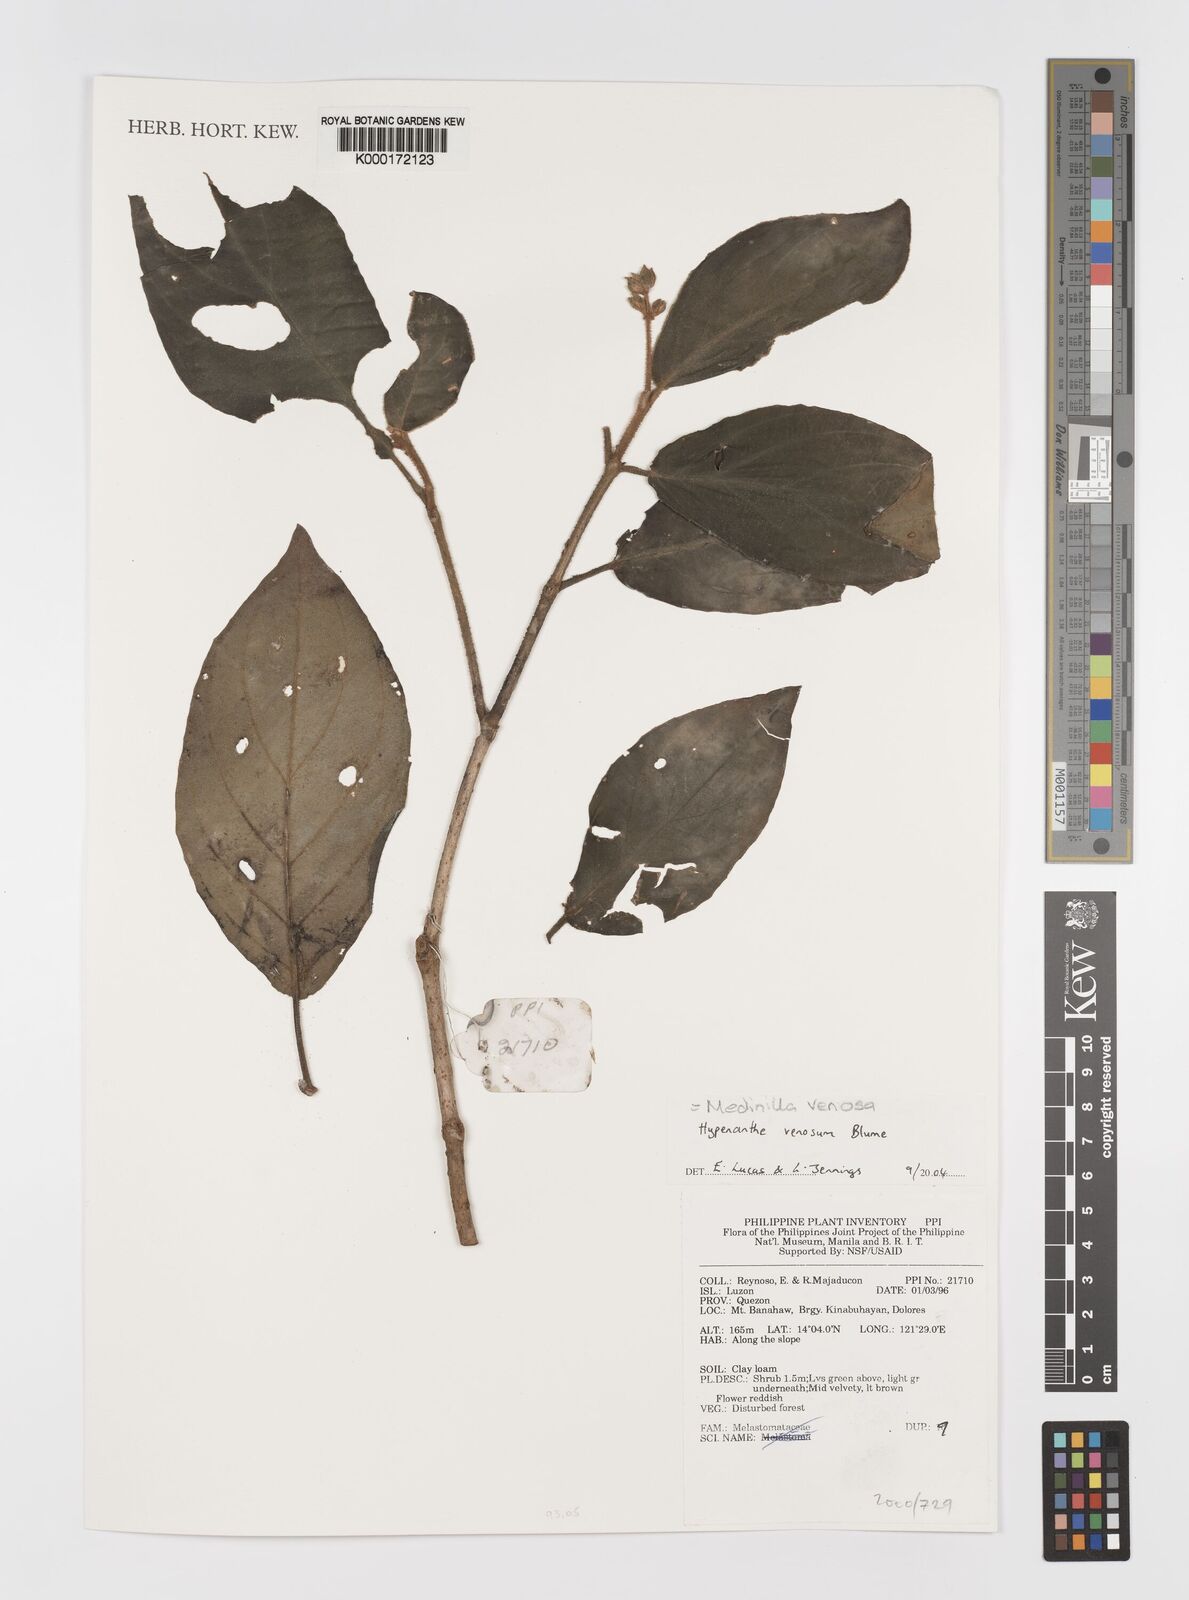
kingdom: Plantae
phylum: Tracheophyta
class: Magnoliopsida
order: Myrtales
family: Melastomataceae
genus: Medinilla
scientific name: Medinilla venosa
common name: Holdtight
